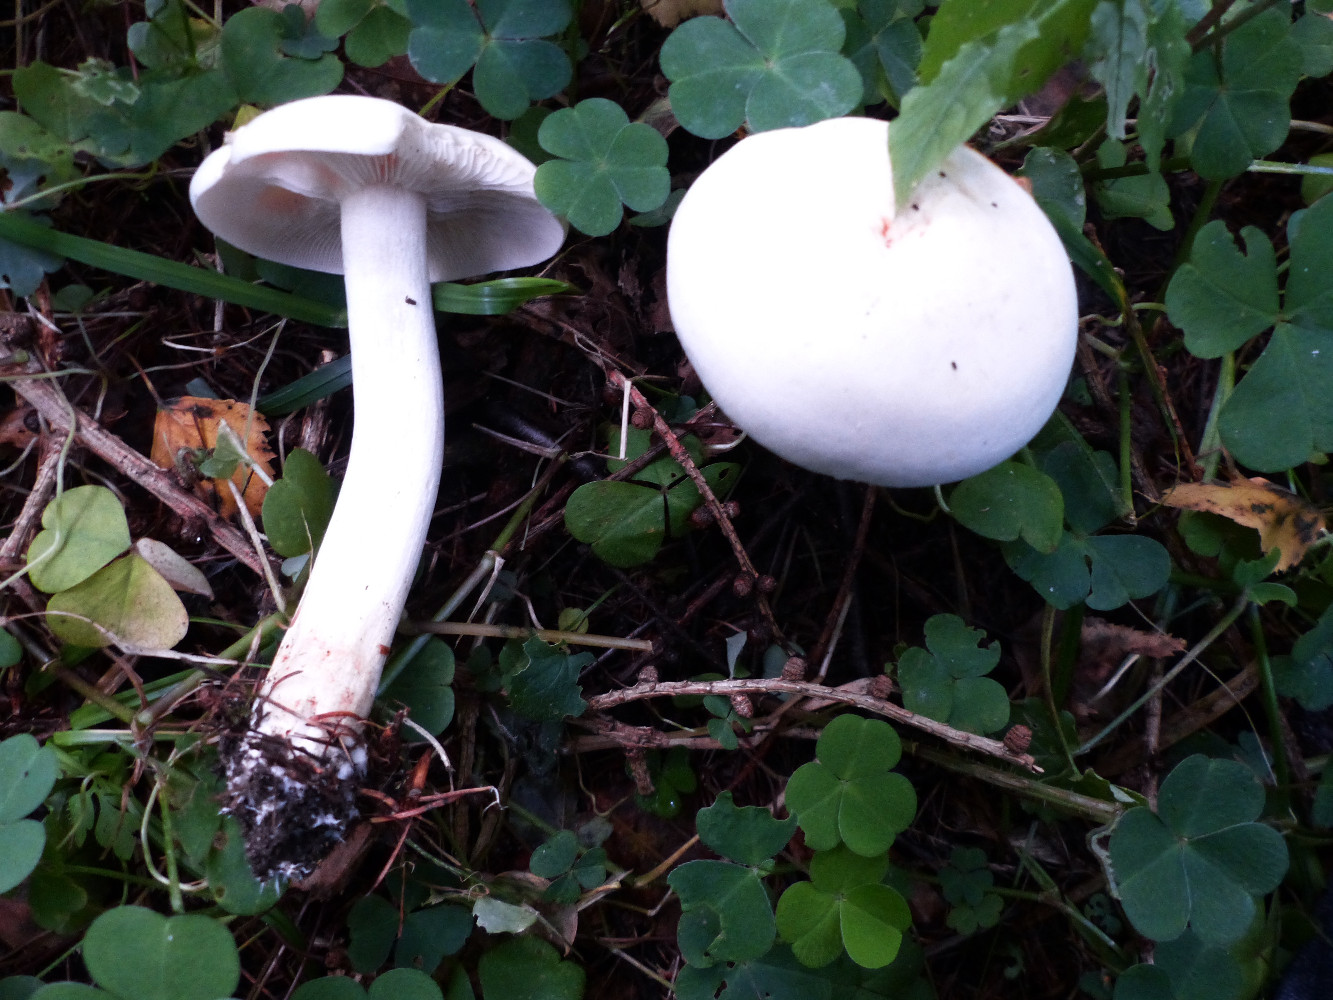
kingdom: Fungi
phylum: Basidiomycota
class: Agaricomycetes
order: Agaricales
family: Hygrophoraceae
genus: Hygrophorus
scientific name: Hygrophorus discoxanthus
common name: ildelugtende sneglehat
